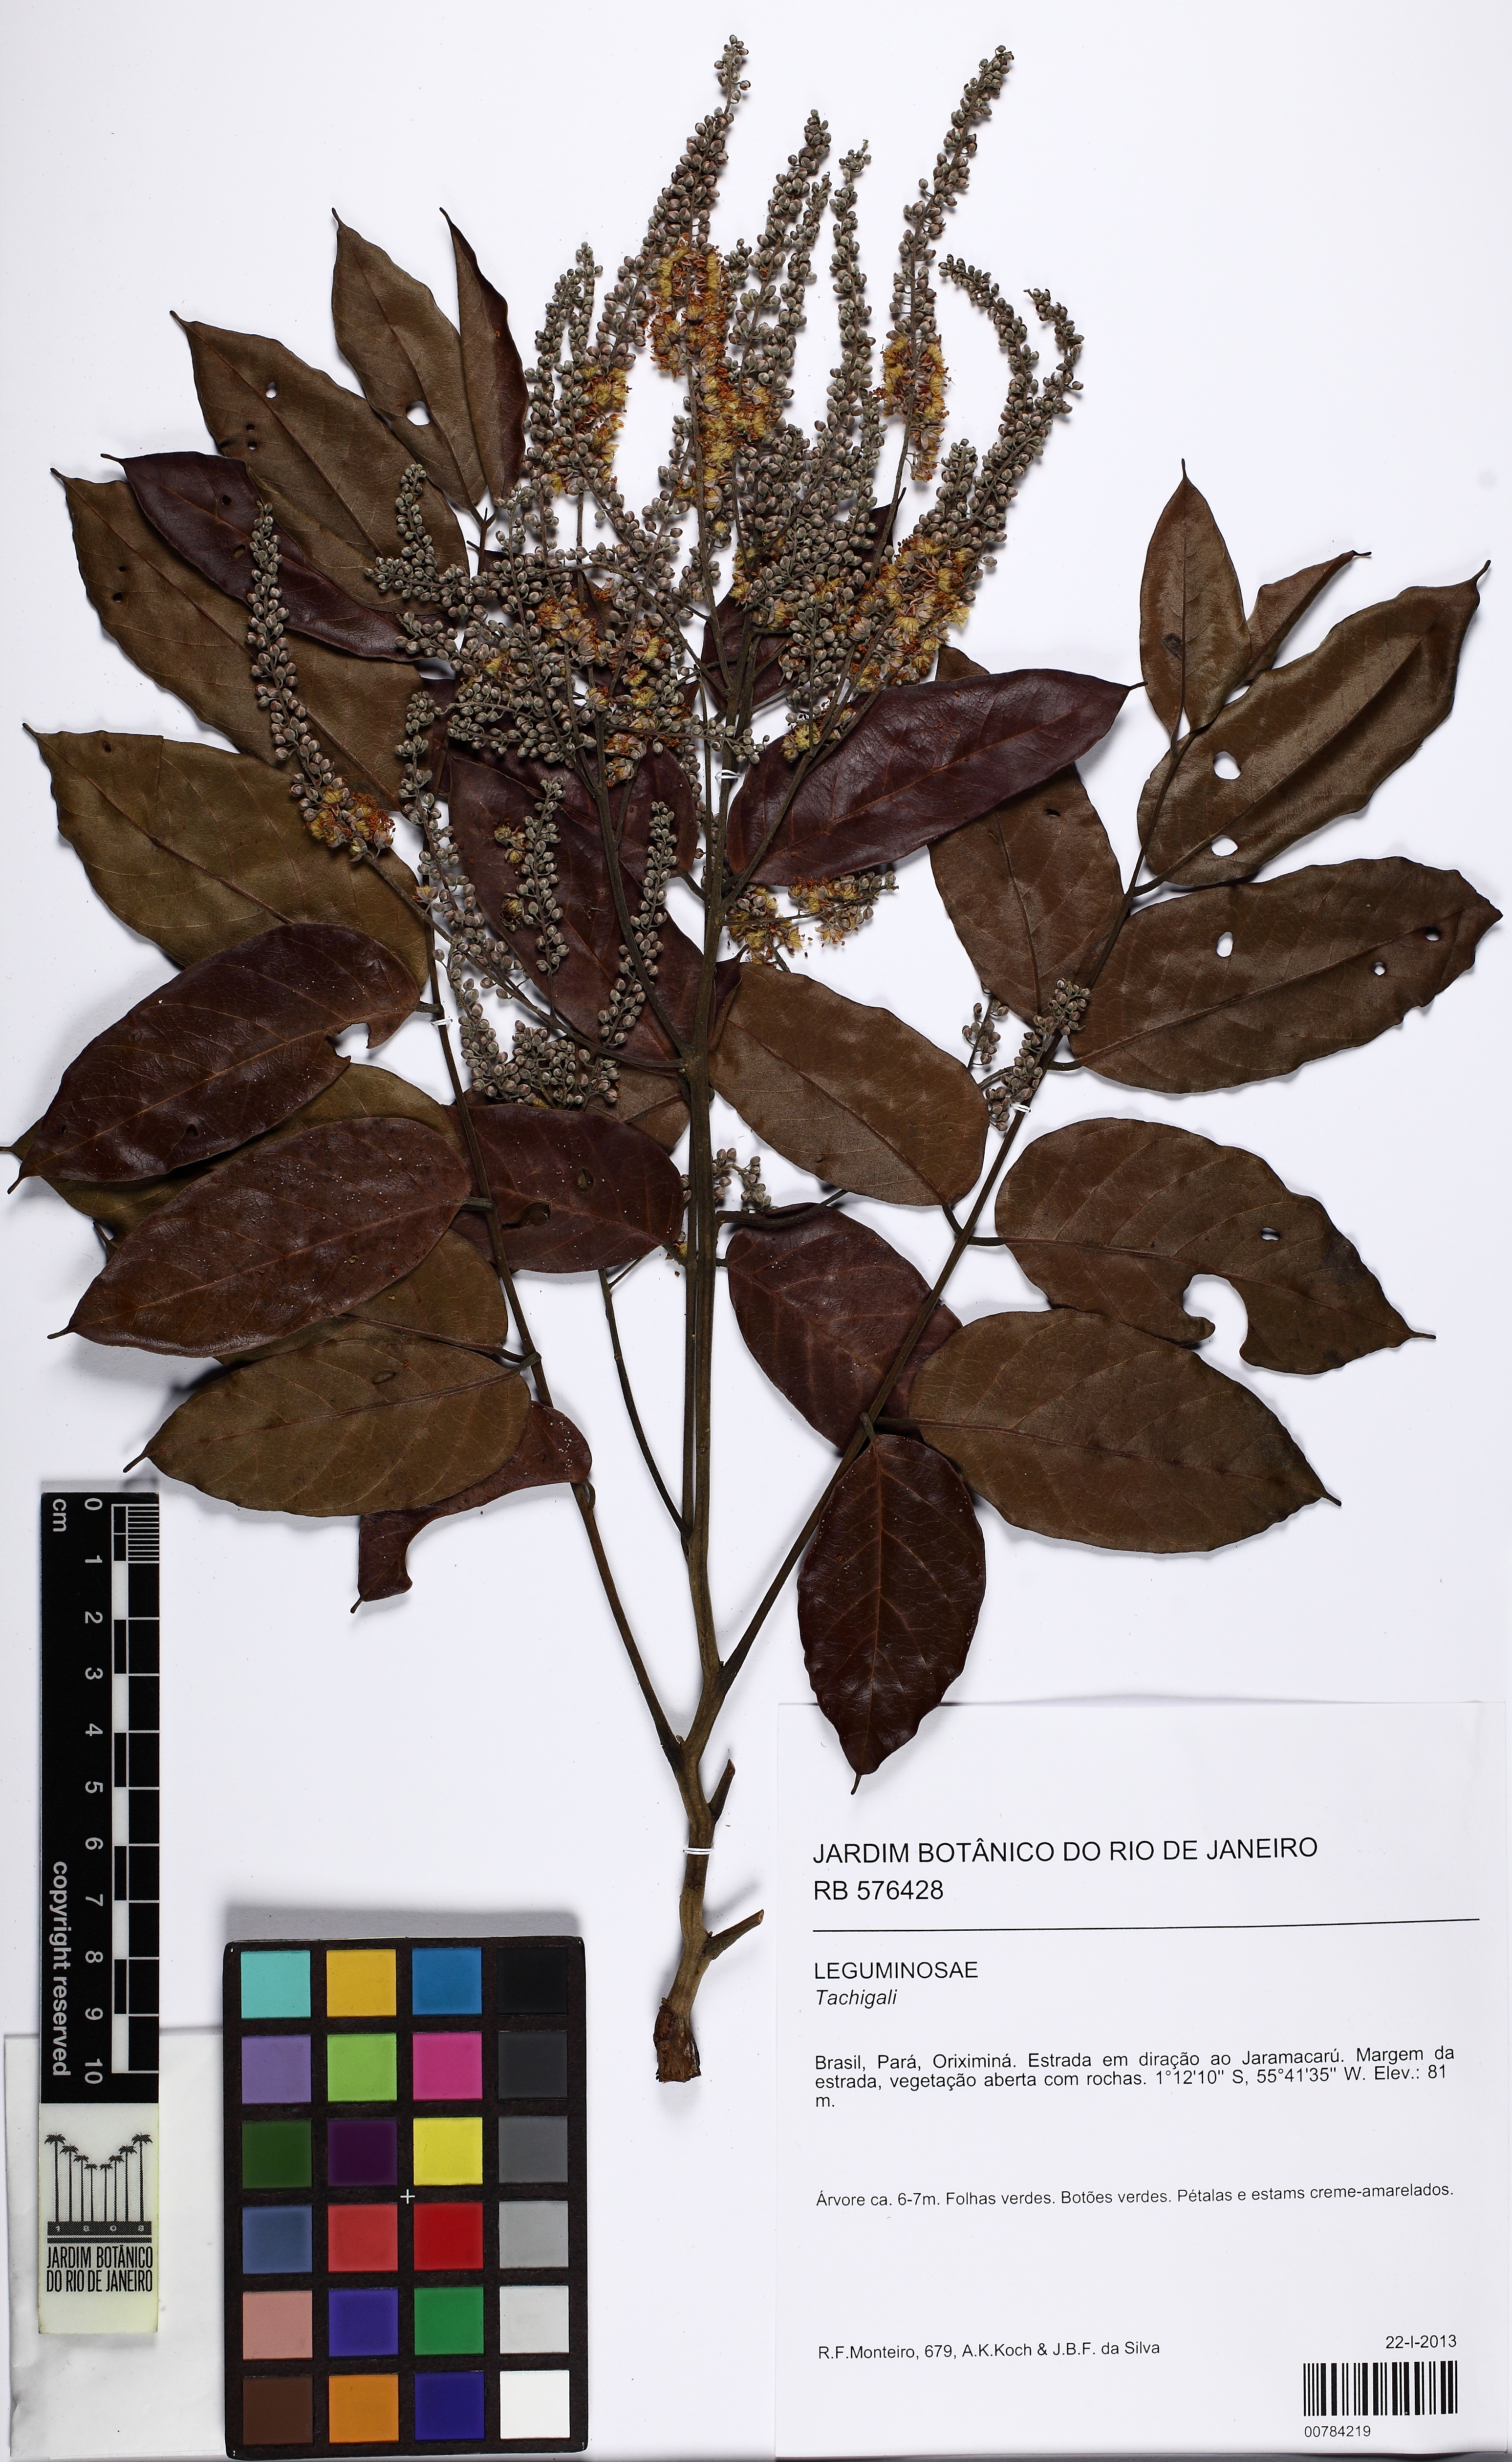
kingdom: Plantae
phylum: Tracheophyta
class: Magnoliopsida
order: Fabales
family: Fabaceae
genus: Tachigali
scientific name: Tachigali paraensis
